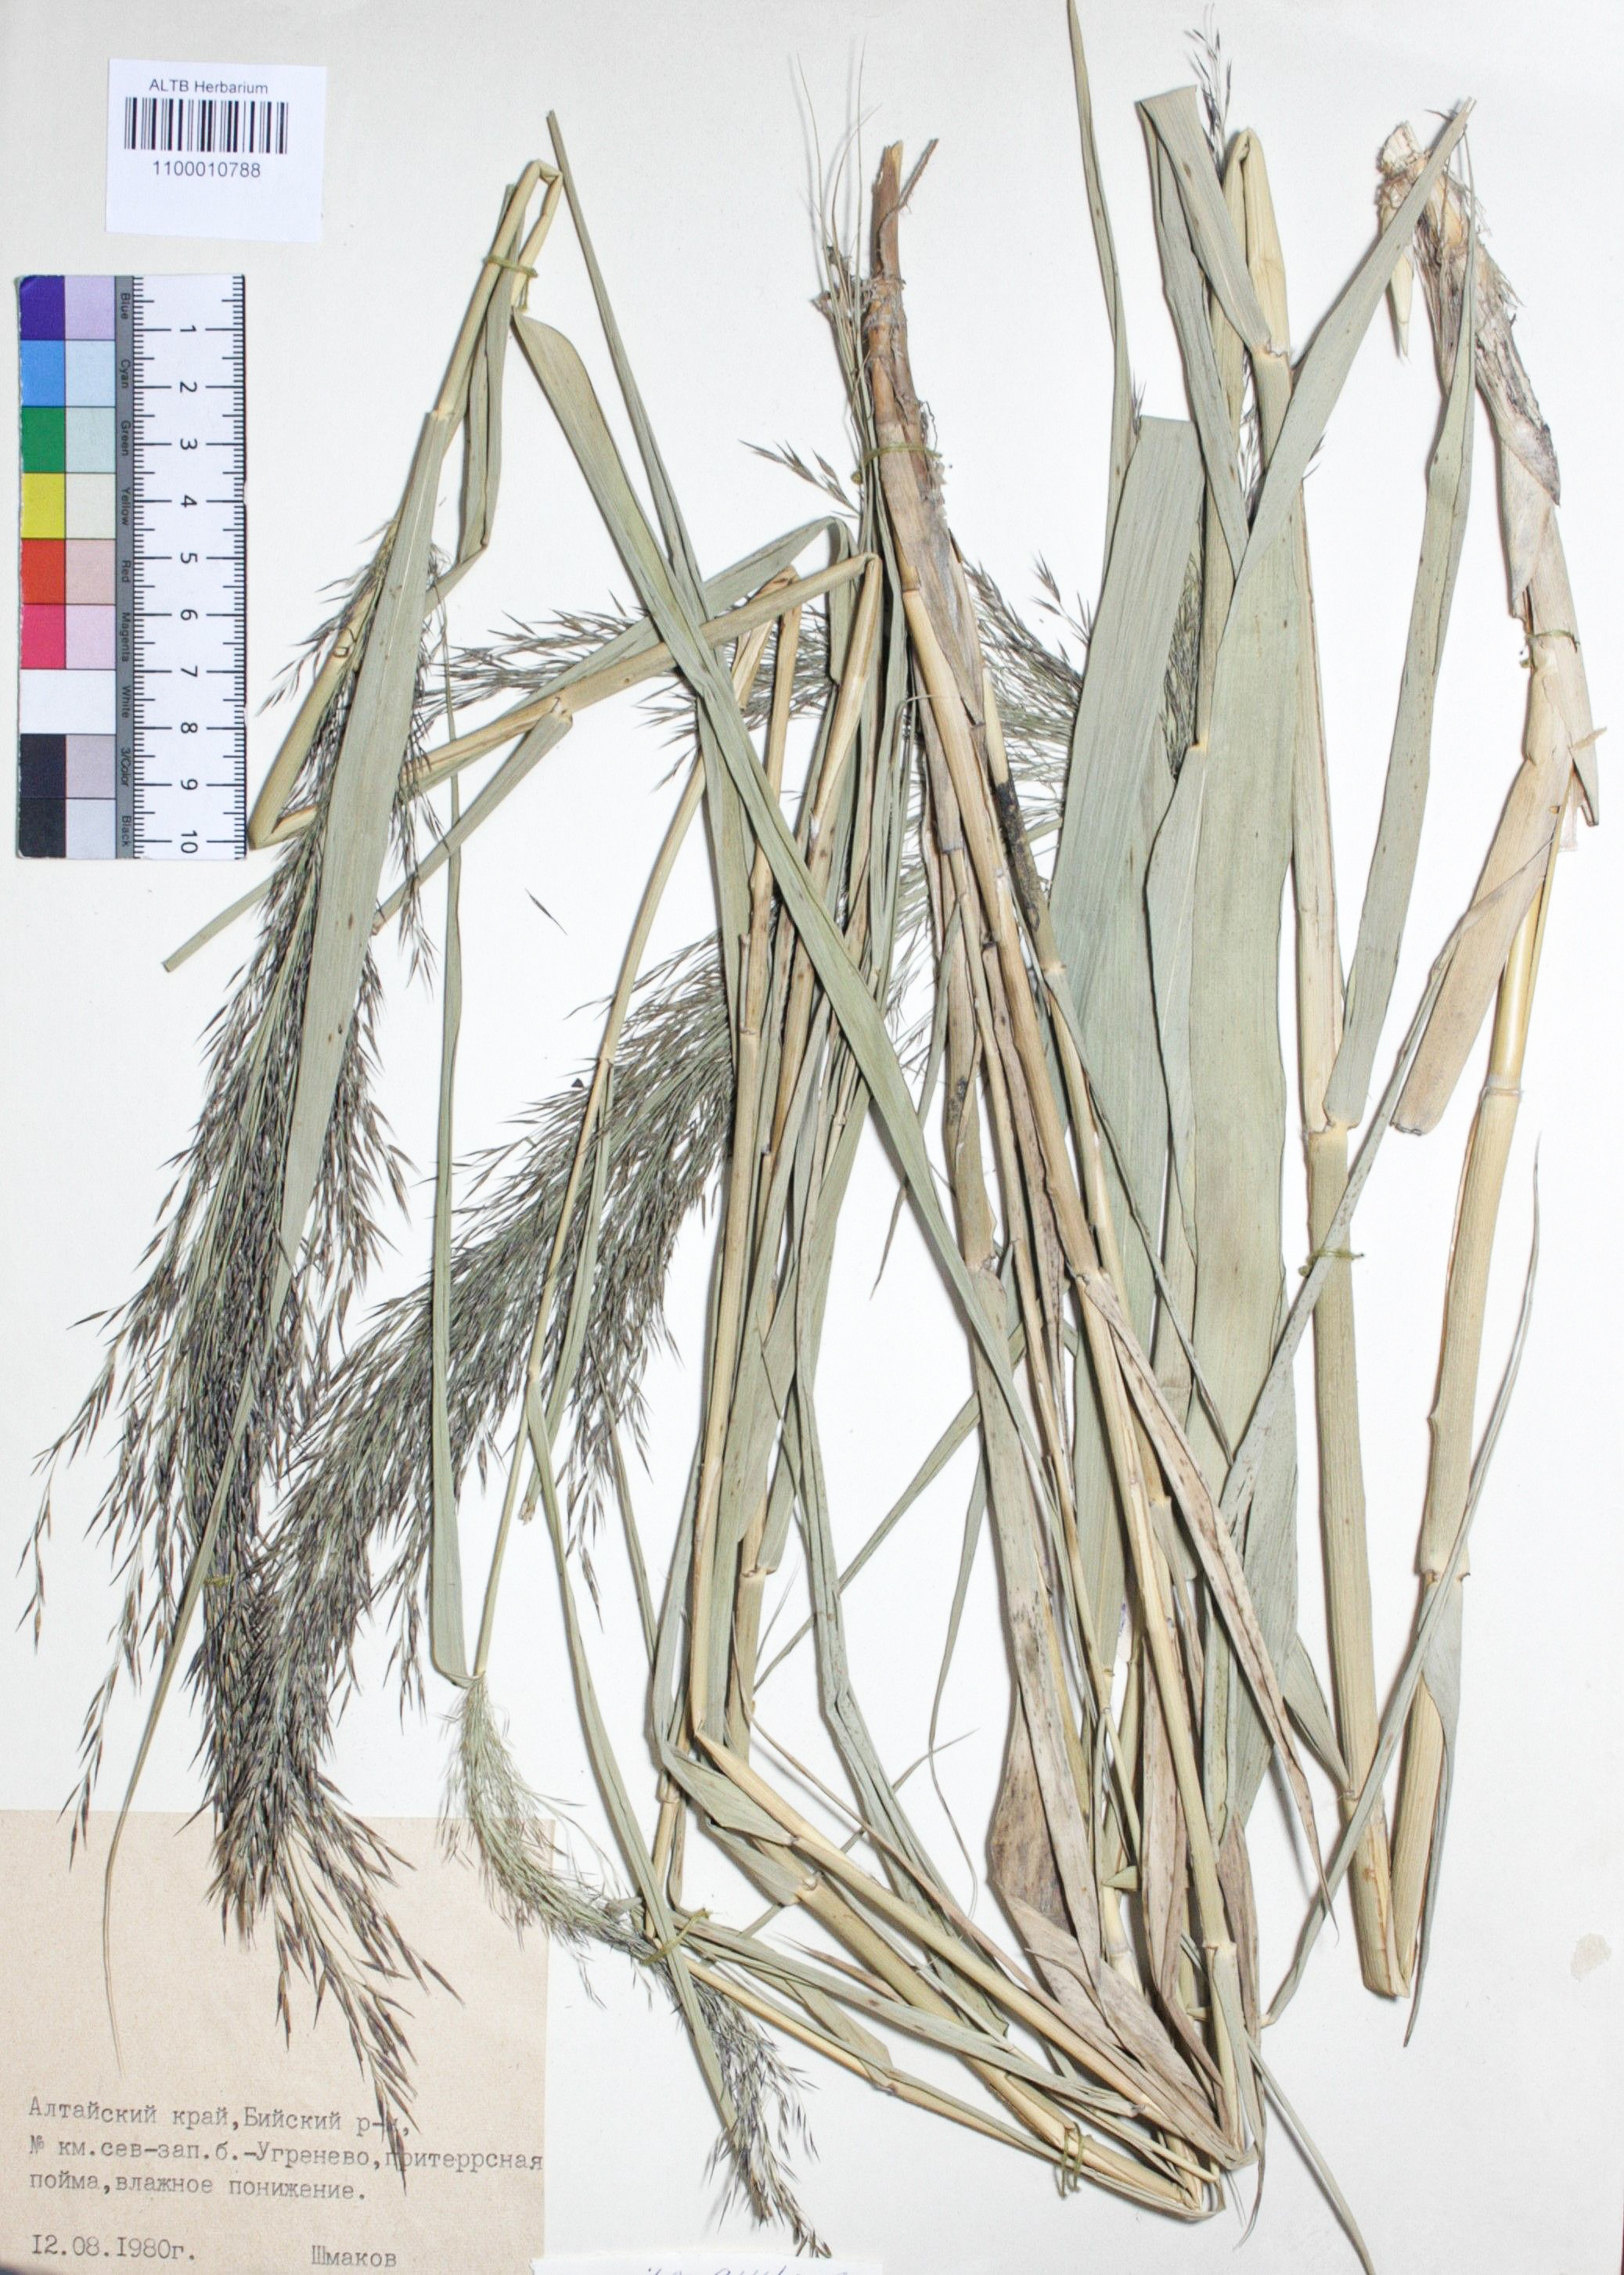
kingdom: Plantae
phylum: Tracheophyta
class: Liliopsida
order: Poales
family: Poaceae
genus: Phragmites
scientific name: Phragmites australis
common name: Common reed
